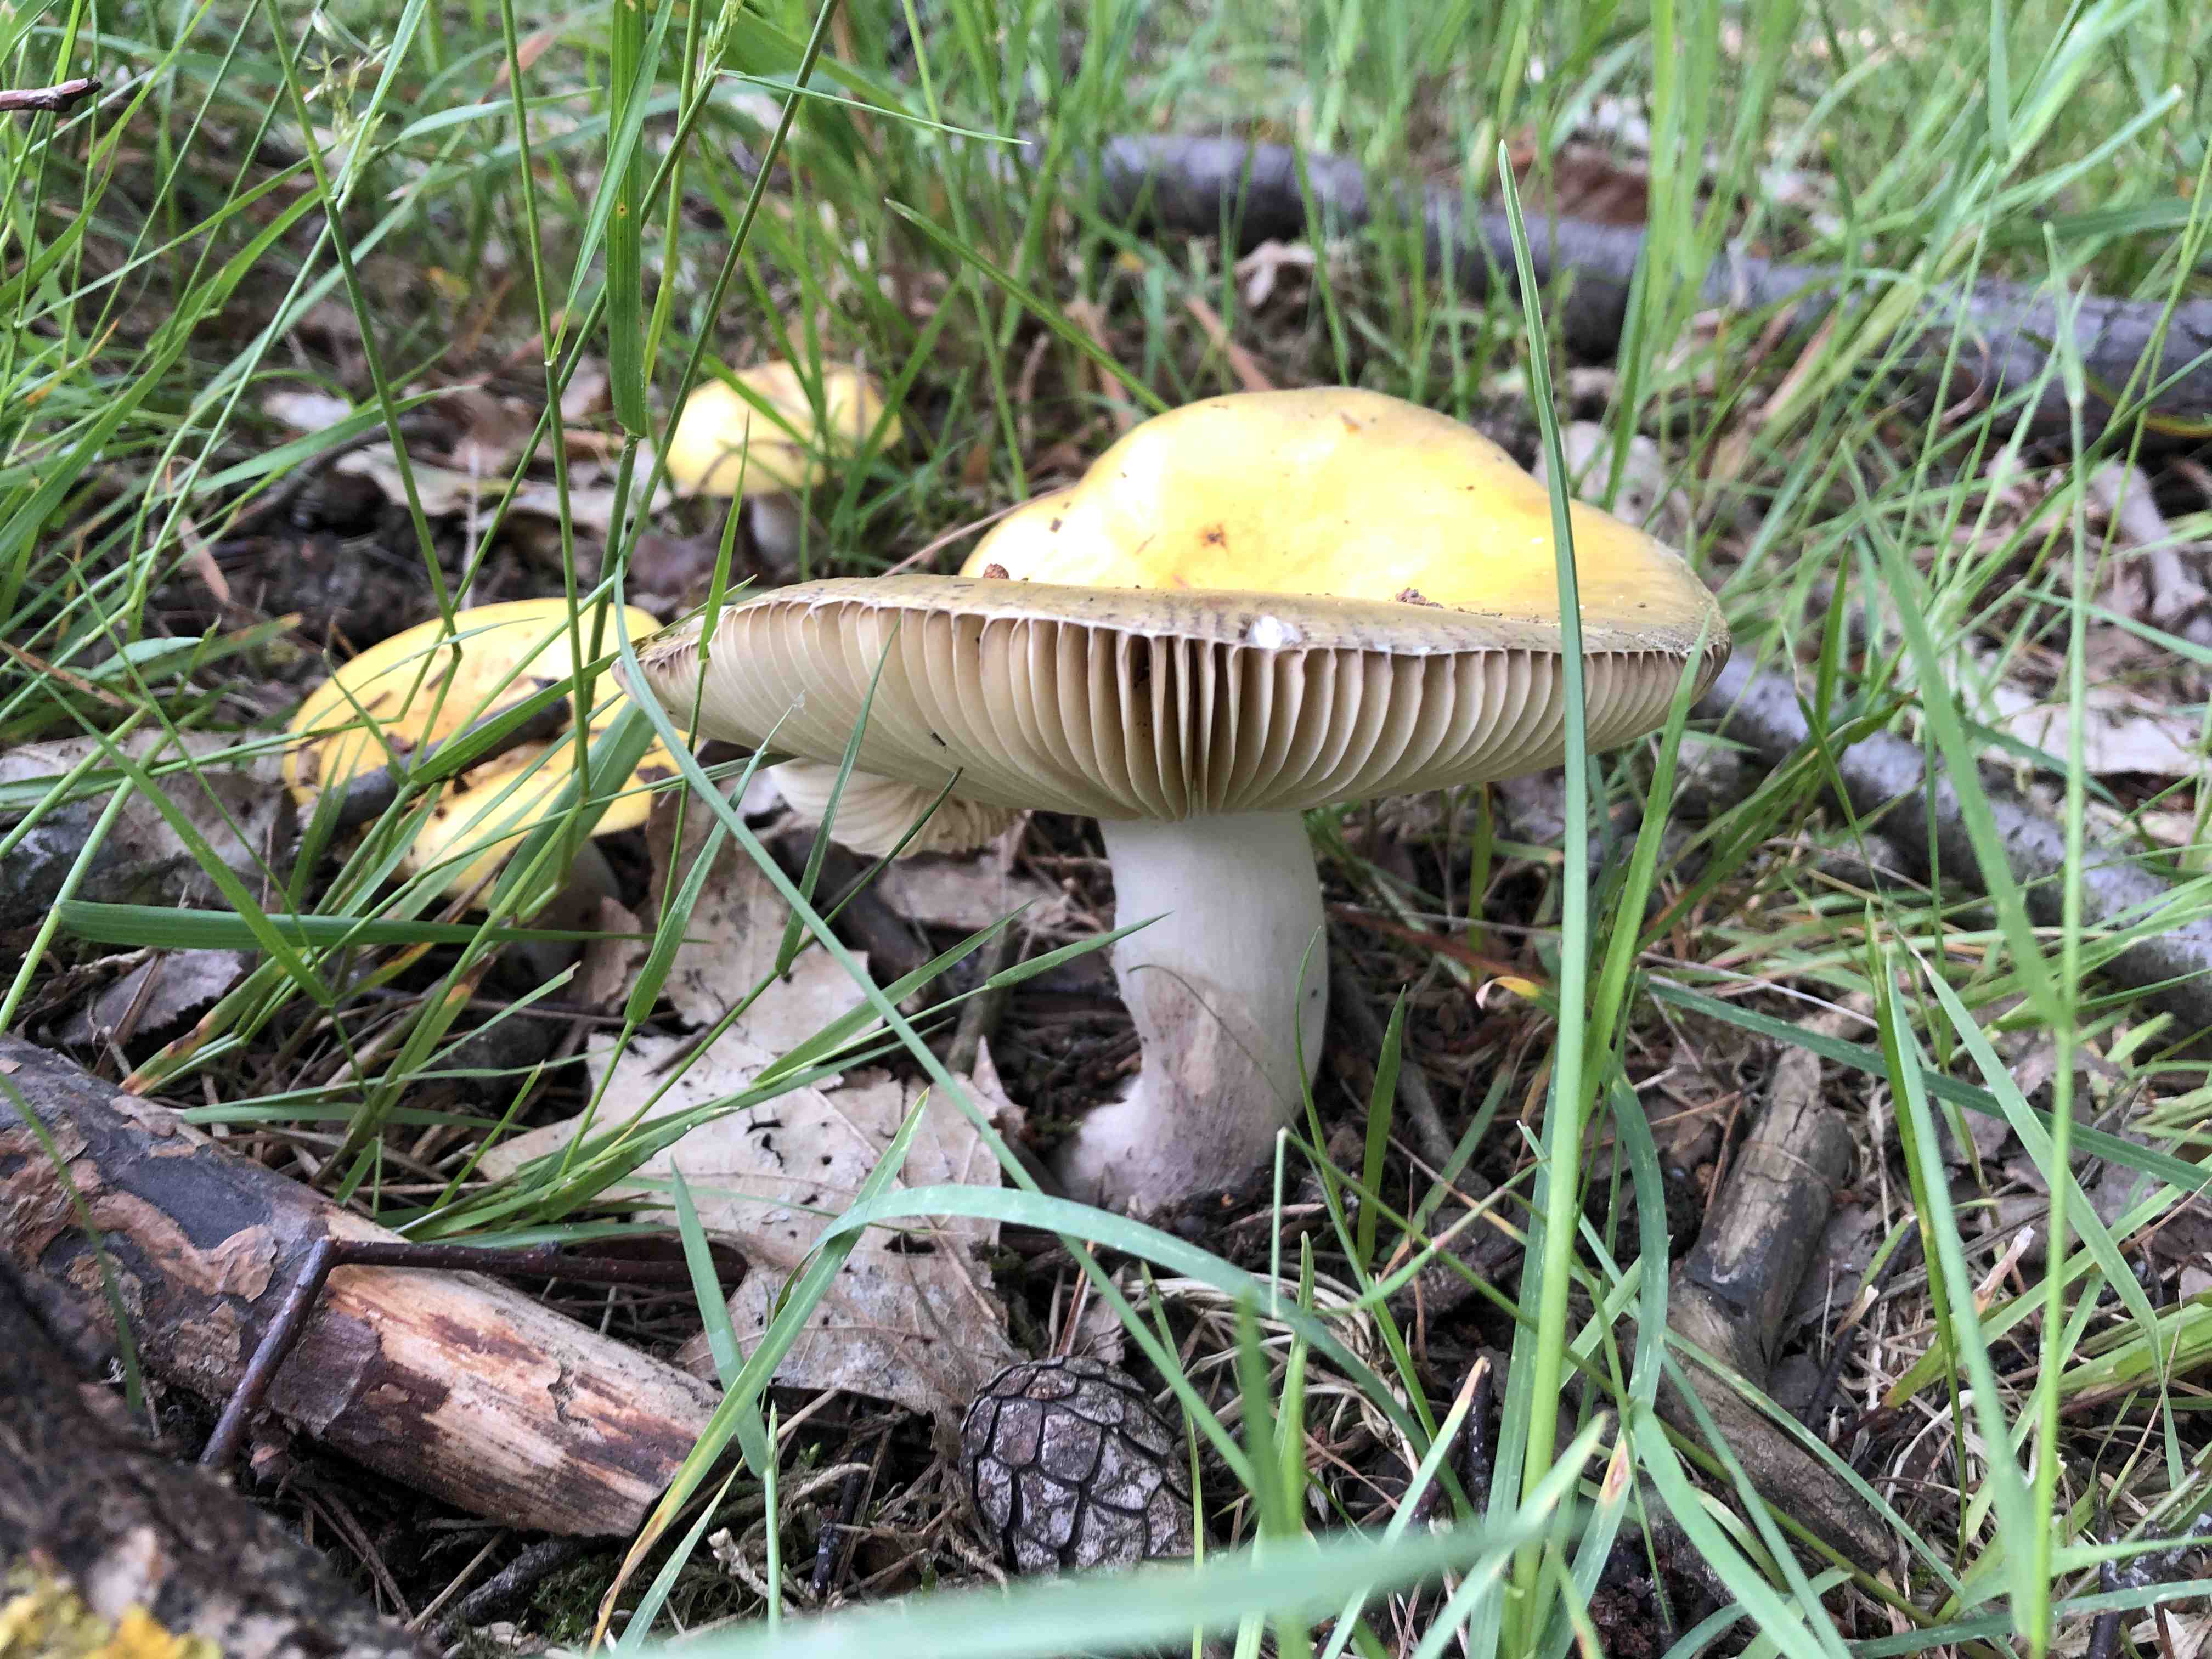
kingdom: Fungi
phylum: Basidiomycota
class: Agaricomycetes
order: Russulales
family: Russulaceae
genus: Russula
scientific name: Russula
